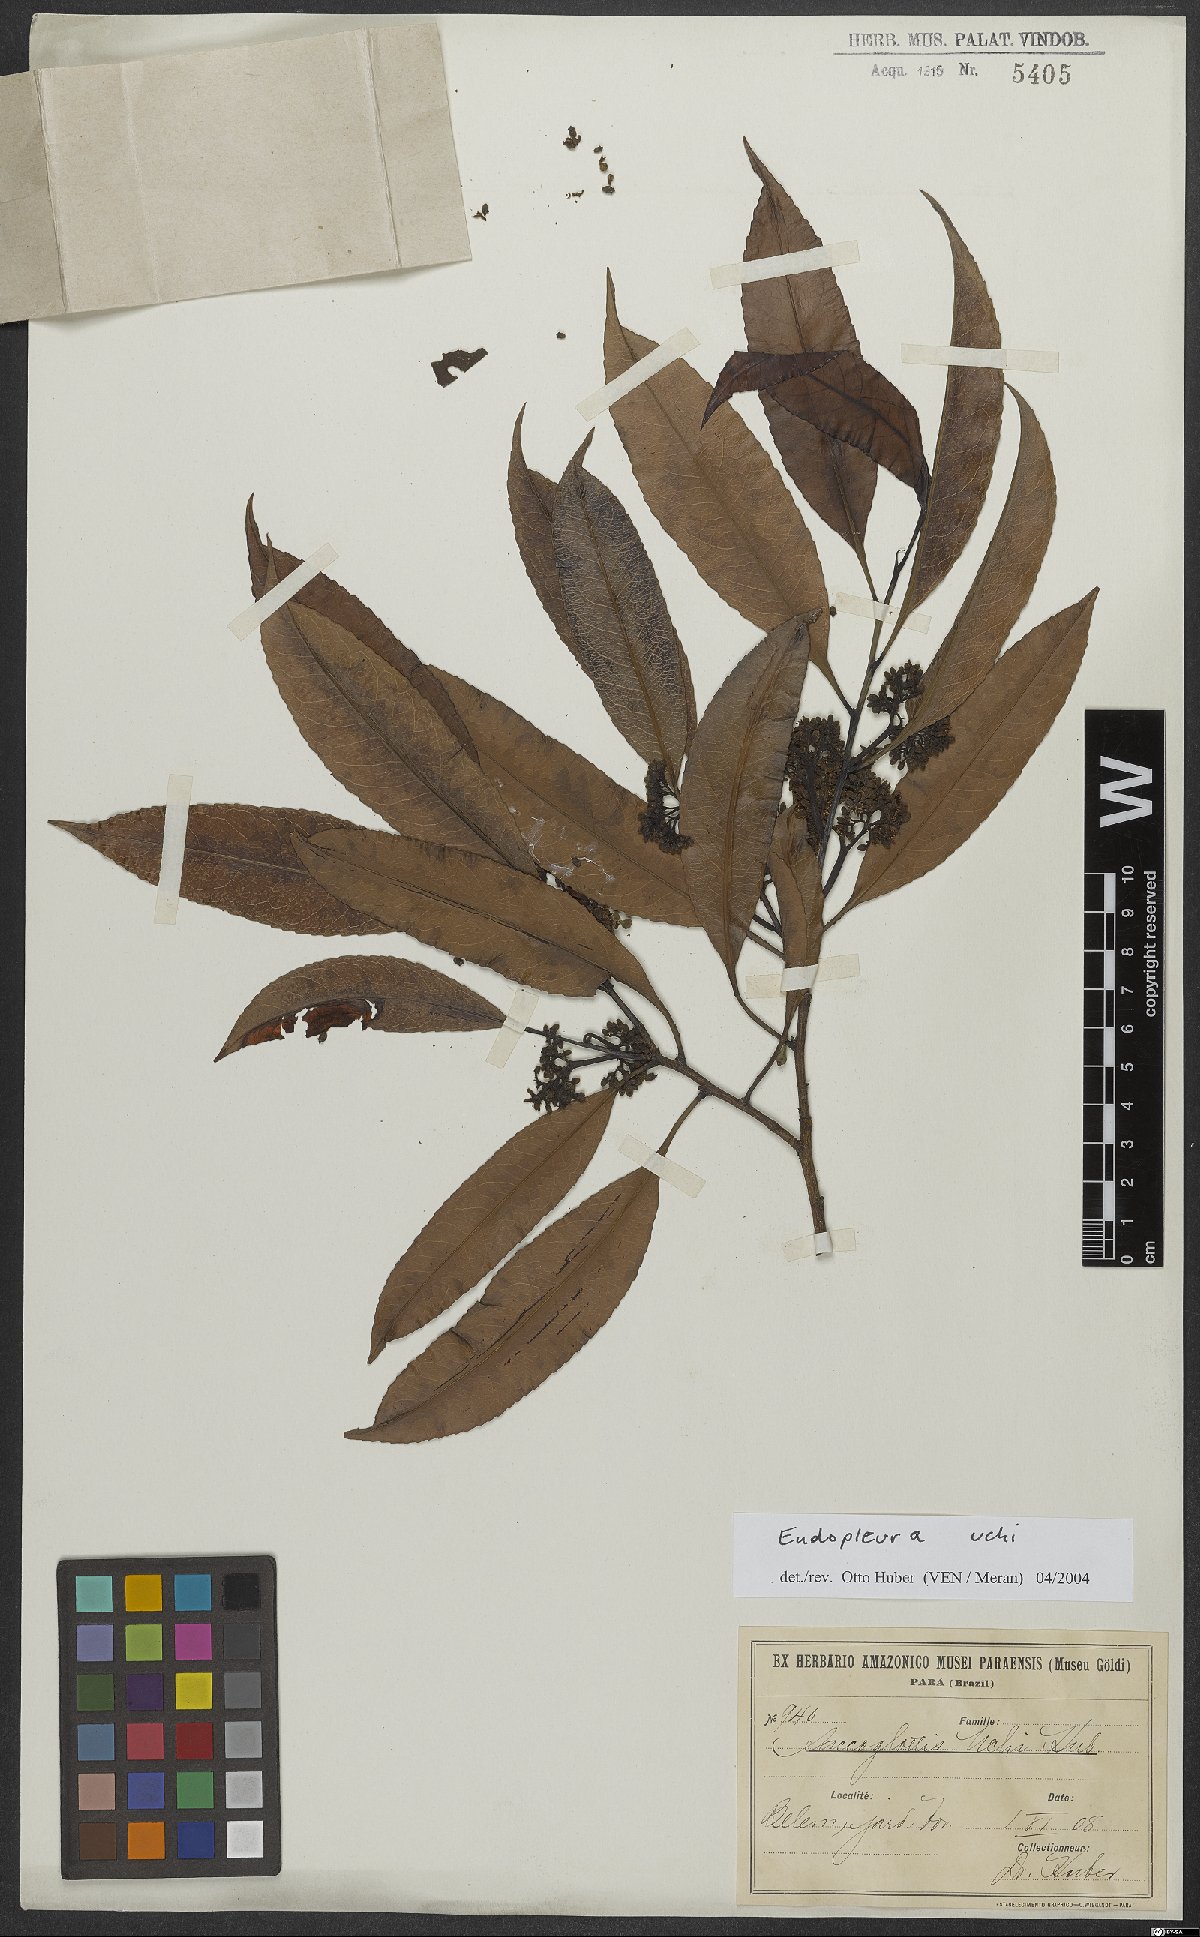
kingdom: Plantae
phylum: Tracheophyta
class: Magnoliopsida
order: Malpighiales
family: Humiriaceae
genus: Endopleura
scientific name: Endopleura uchi
